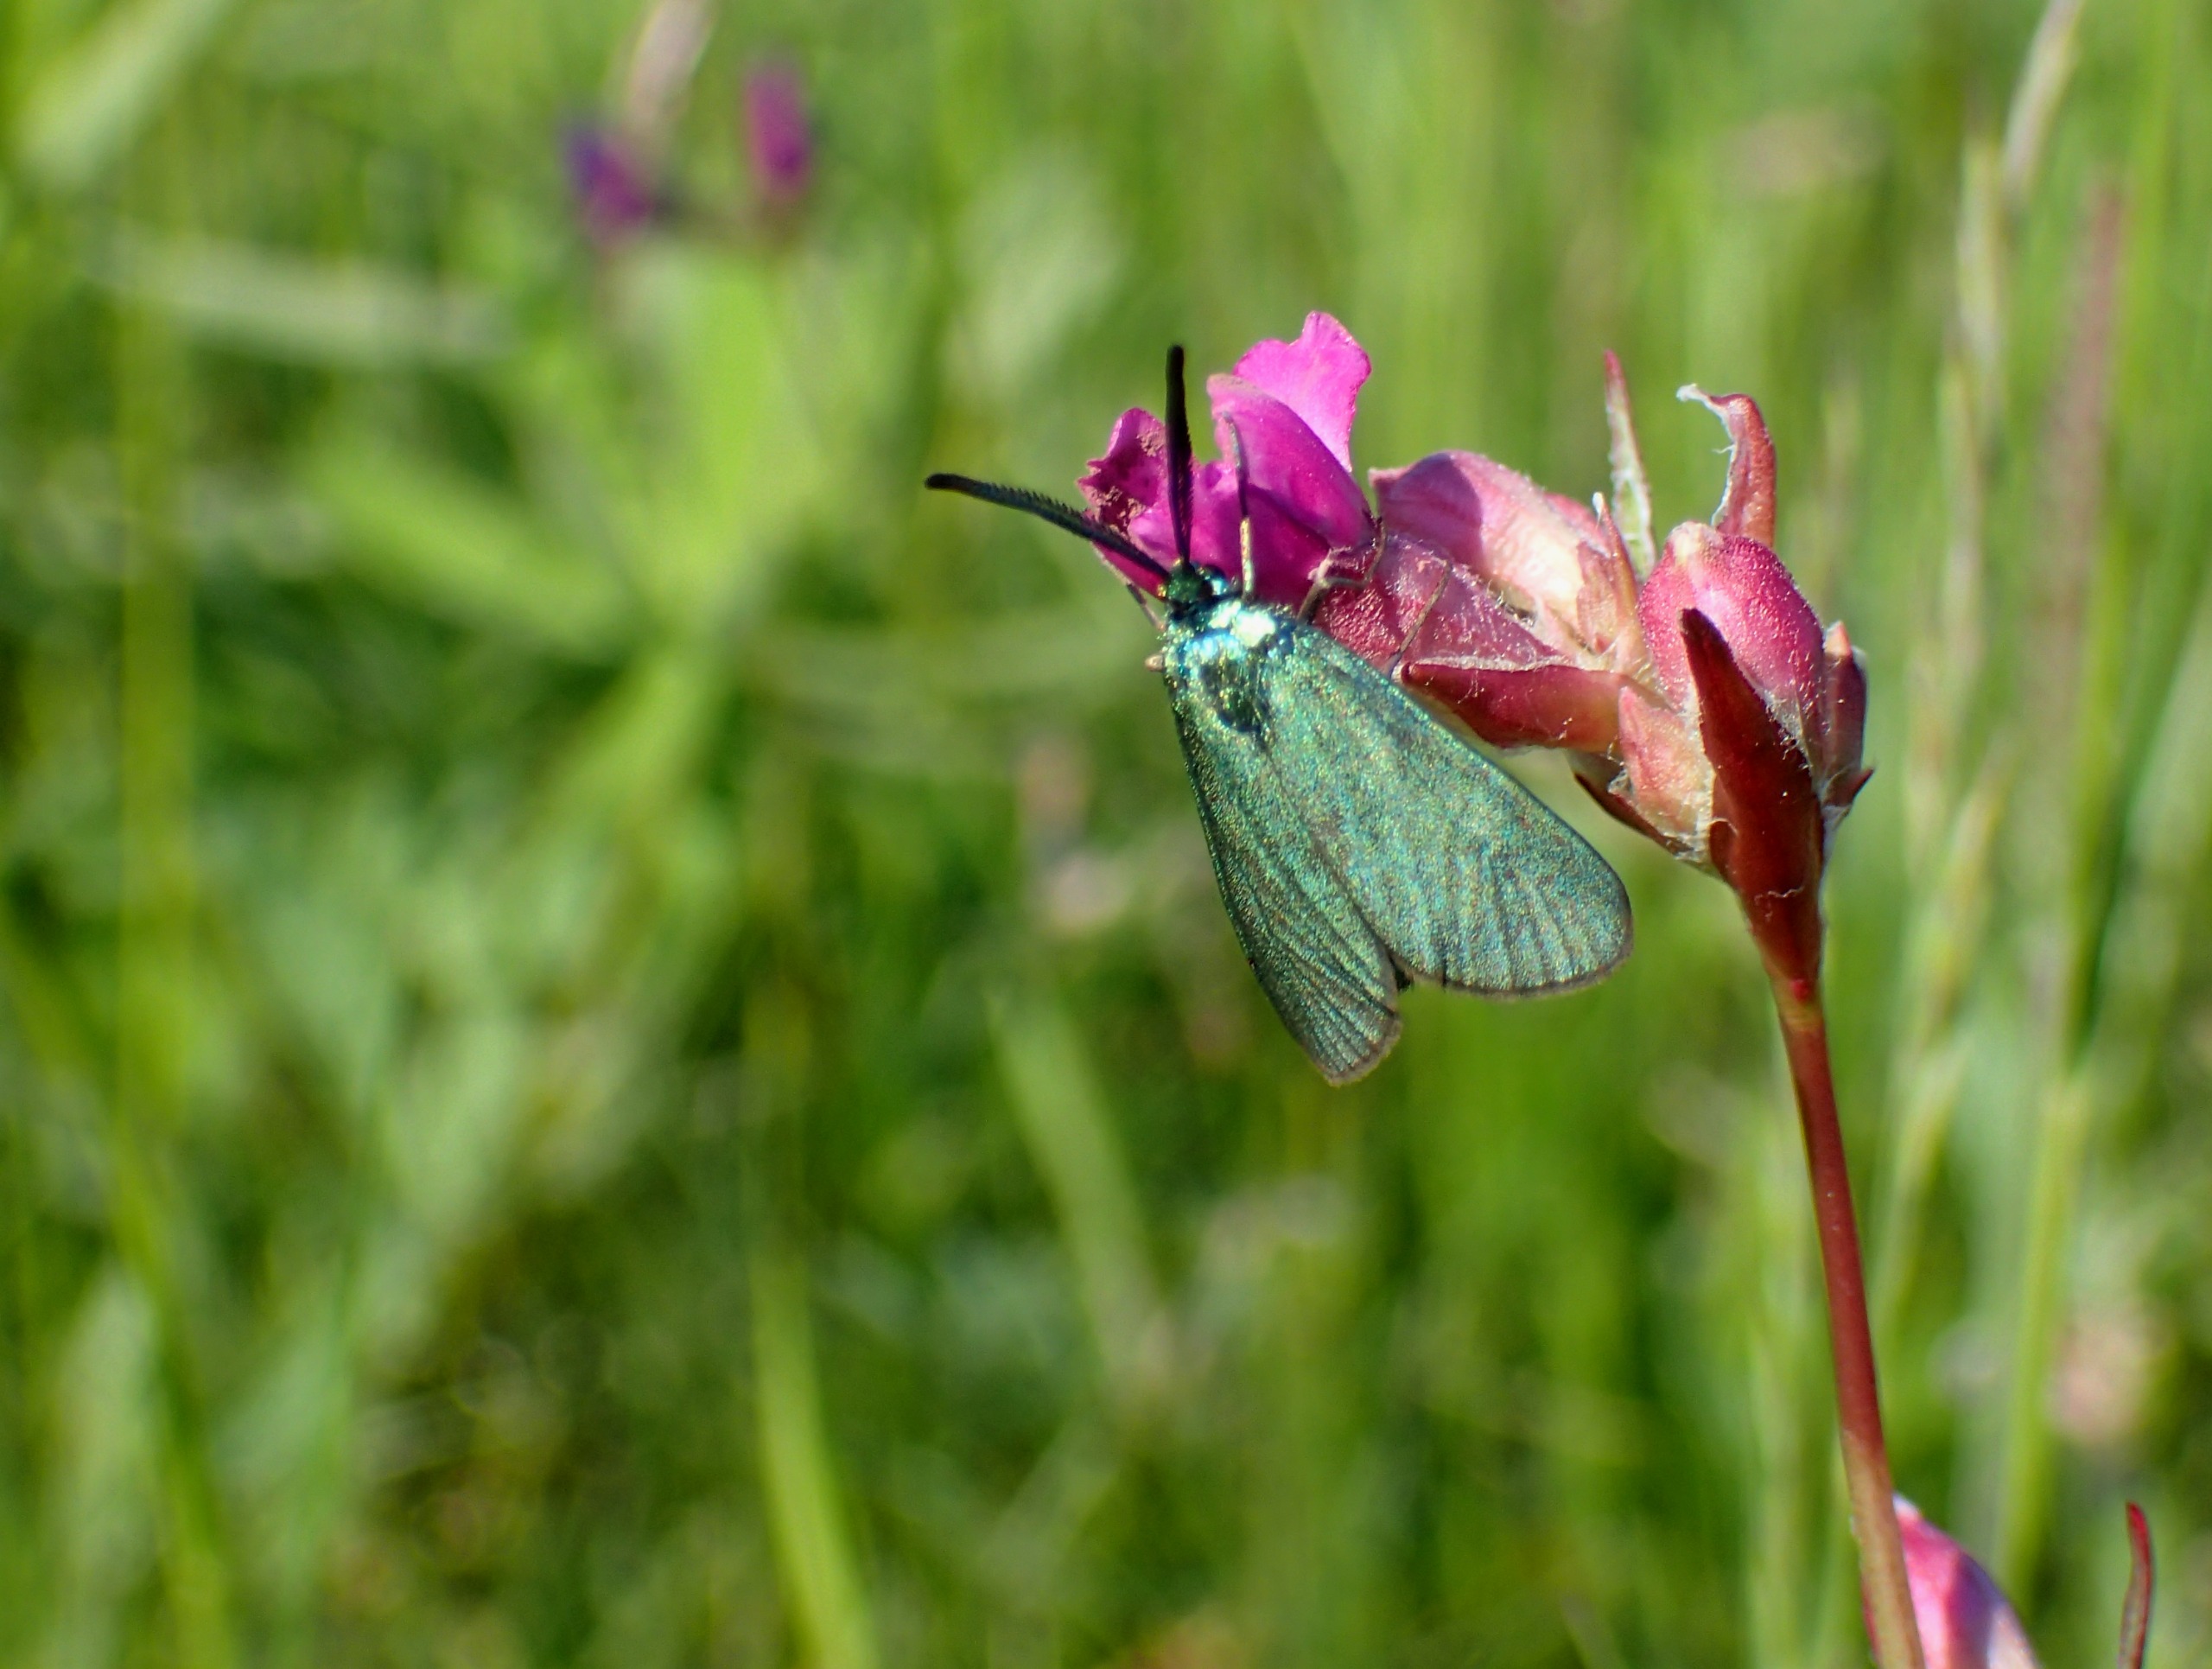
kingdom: Animalia
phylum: Arthropoda
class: Insecta
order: Lepidoptera
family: Zygaenidae
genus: Adscita
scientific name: Adscita statices
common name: Metalvinge
